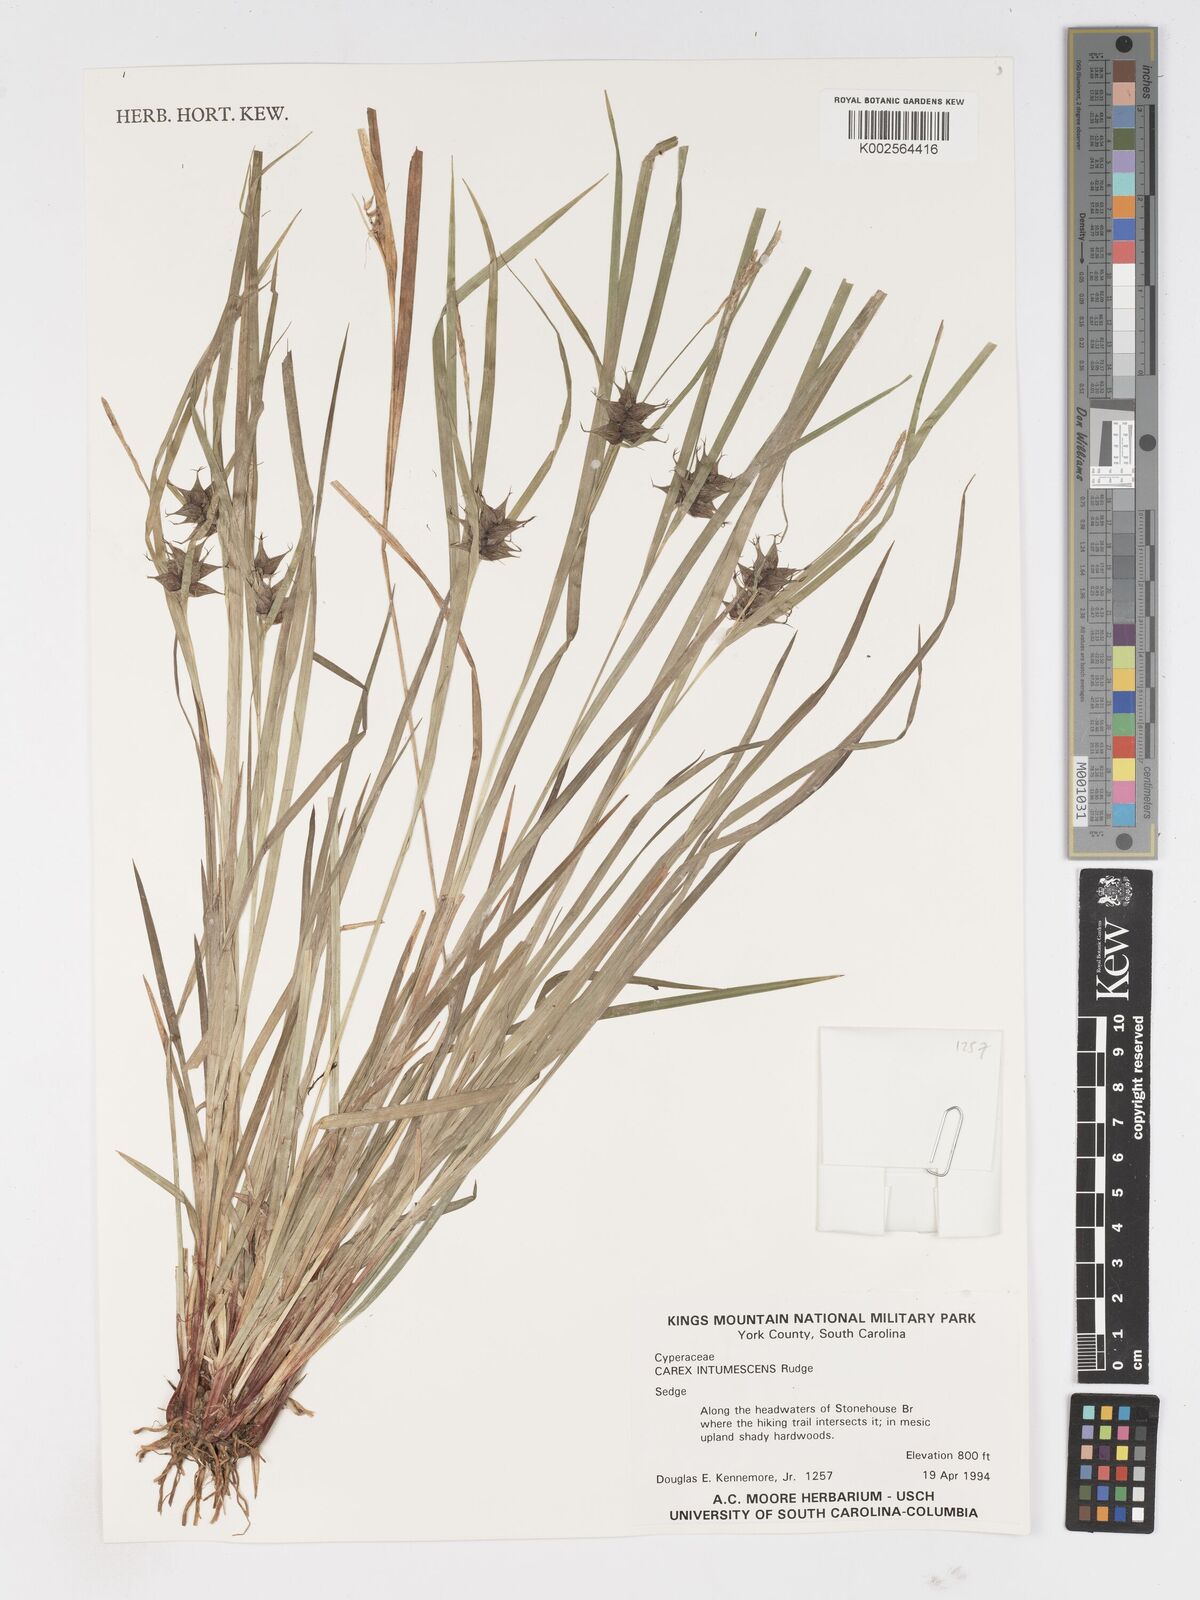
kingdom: Plantae
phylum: Tracheophyta
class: Liliopsida
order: Poales
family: Cyperaceae
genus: Carex
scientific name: Carex intumescens
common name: Greater bladder sedge
